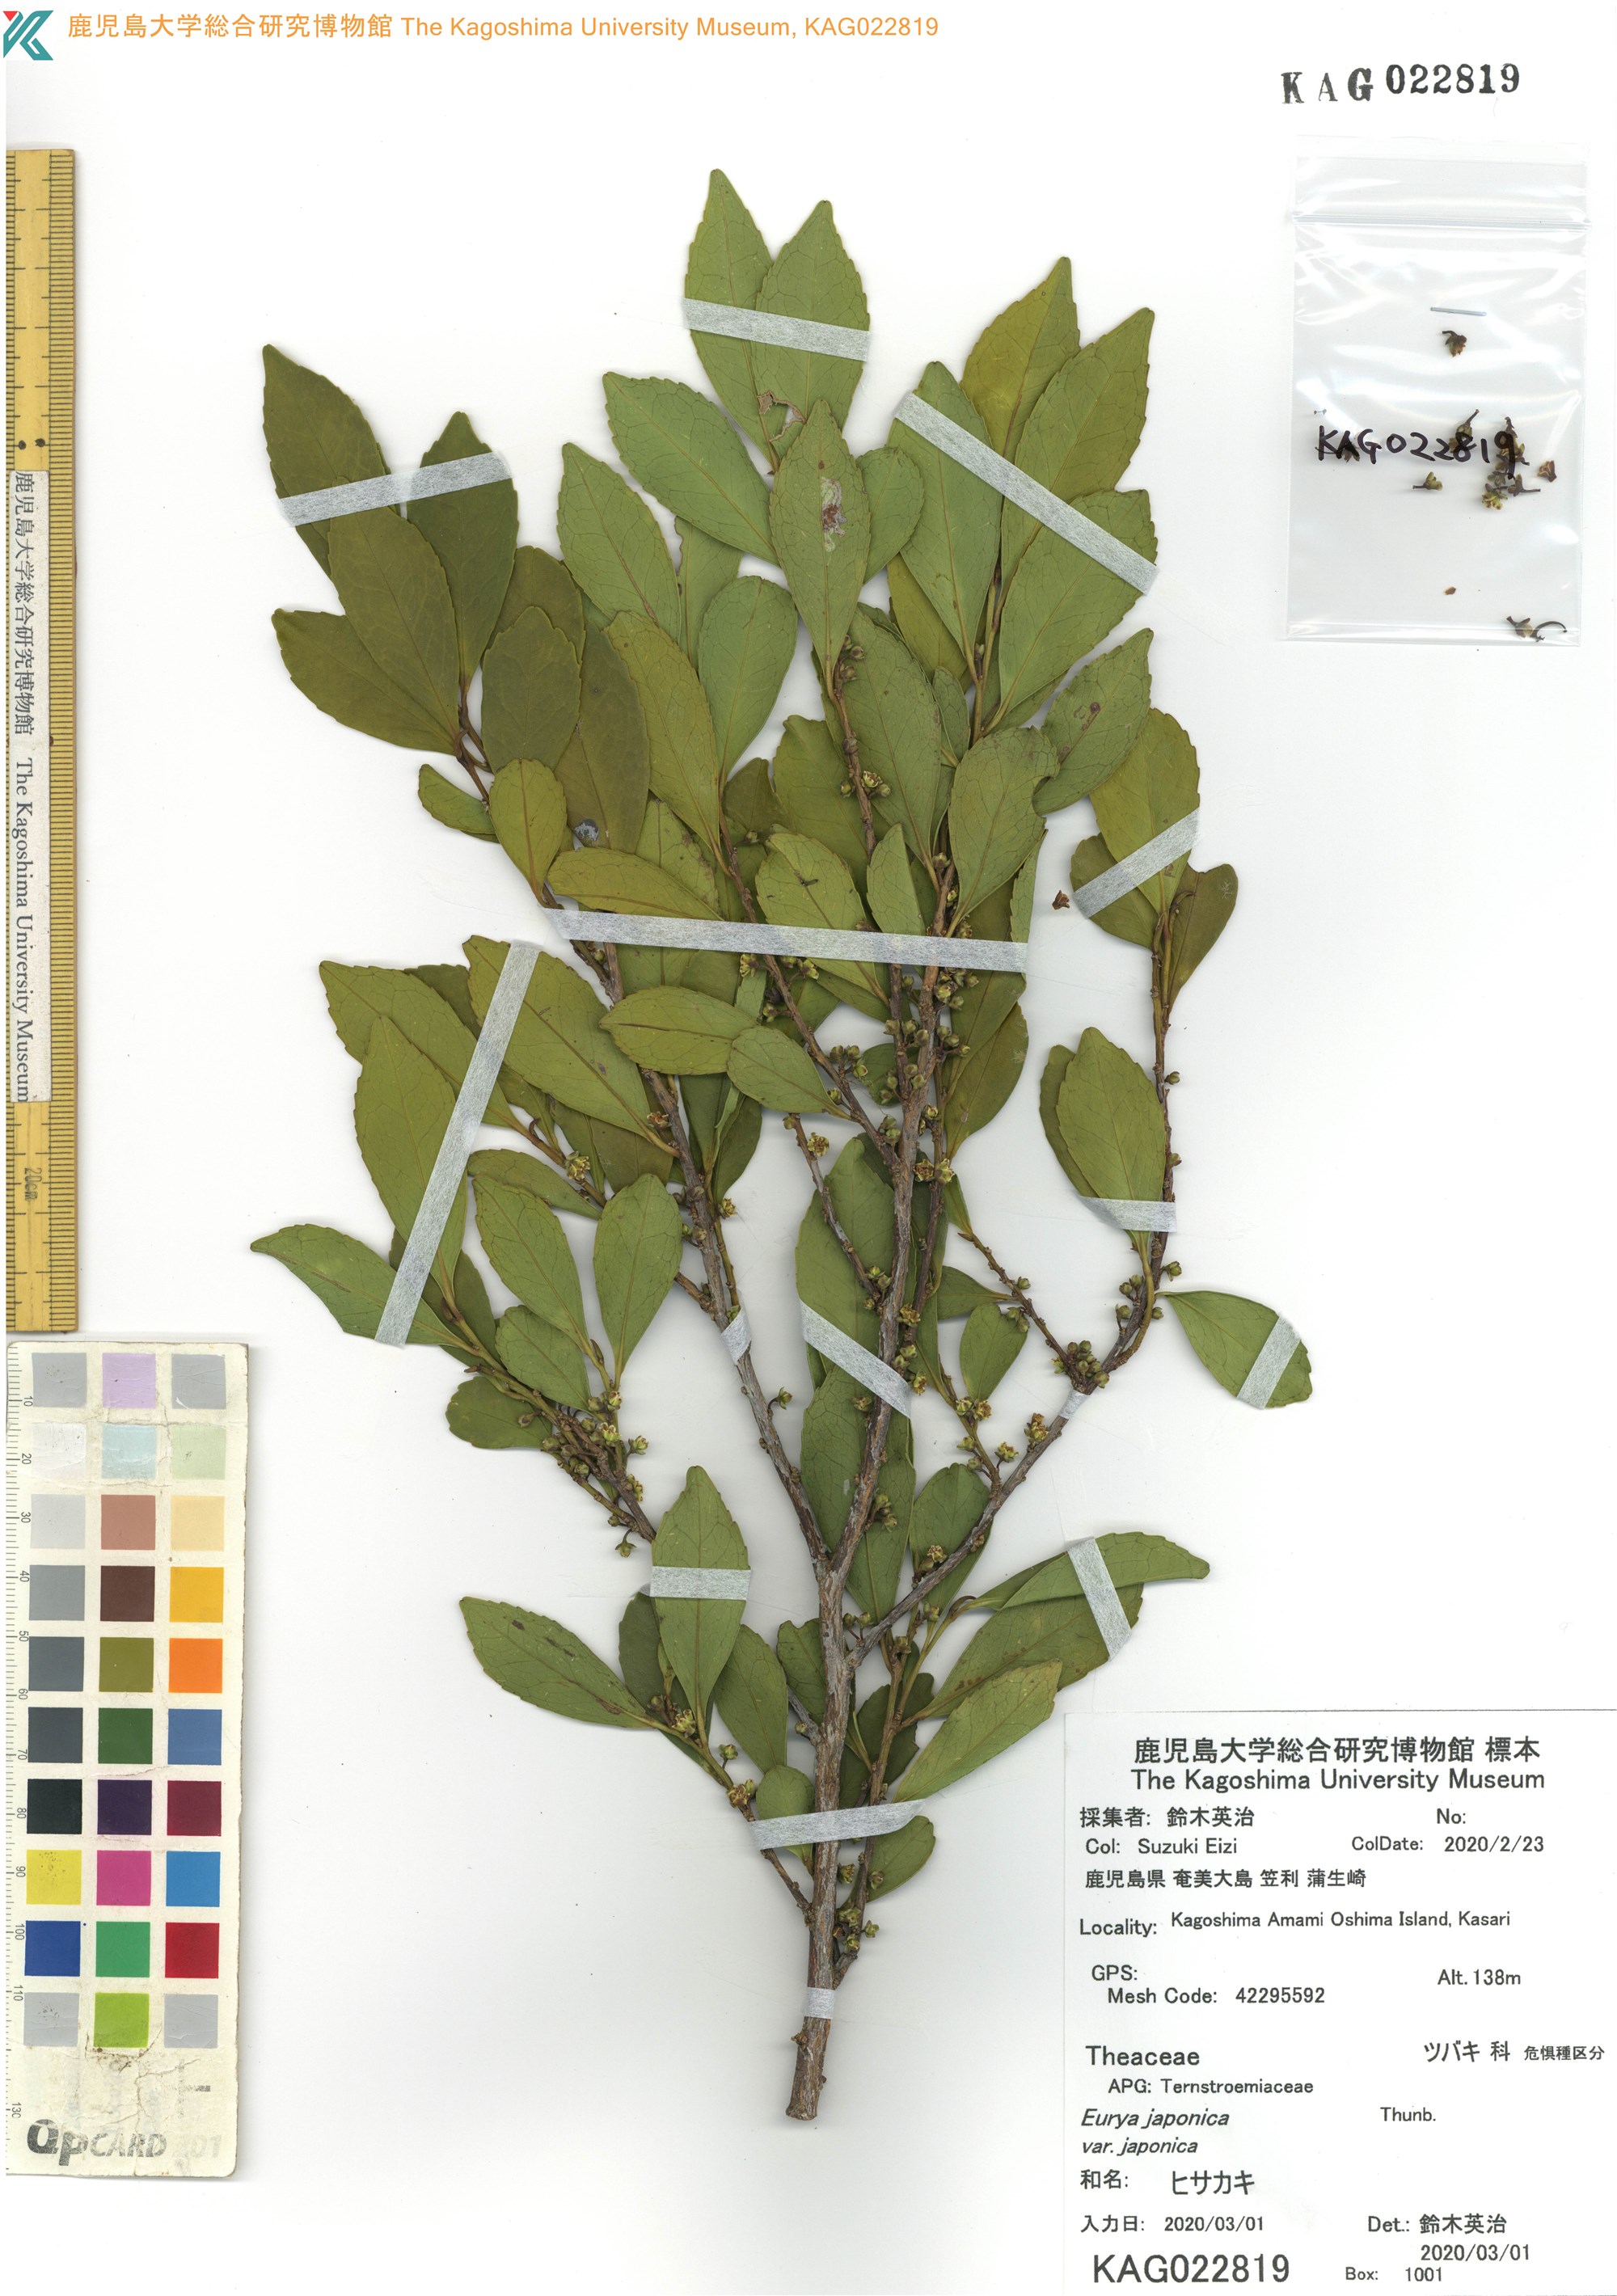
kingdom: Plantae
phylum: Tracheophyta
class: Magnoliopsida
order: Ericales
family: Pentaphylacaceae
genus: Eurya
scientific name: Eurya japonica
